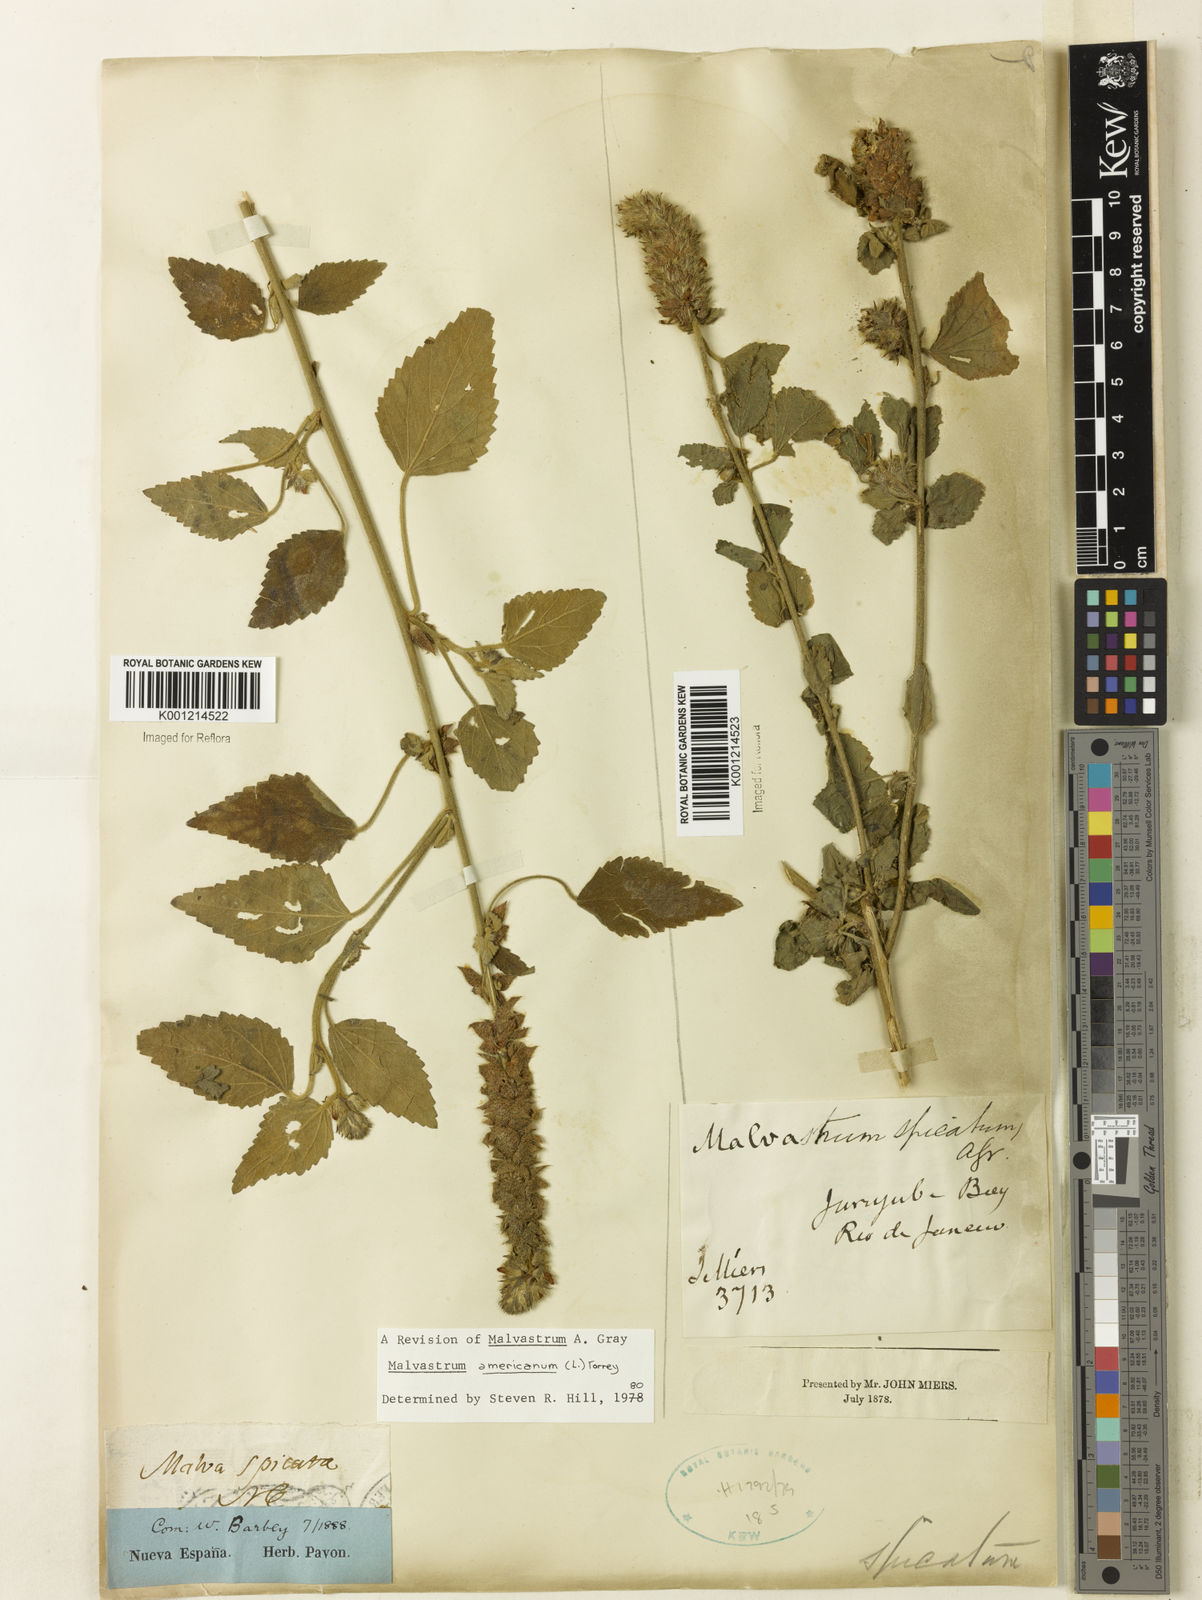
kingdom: Plantae
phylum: Tracheophyta
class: Magnoliopsida
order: Malvales
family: Malvaceae
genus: Malvastrum
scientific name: Malvastrum americanum
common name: Spiked malvastrum
